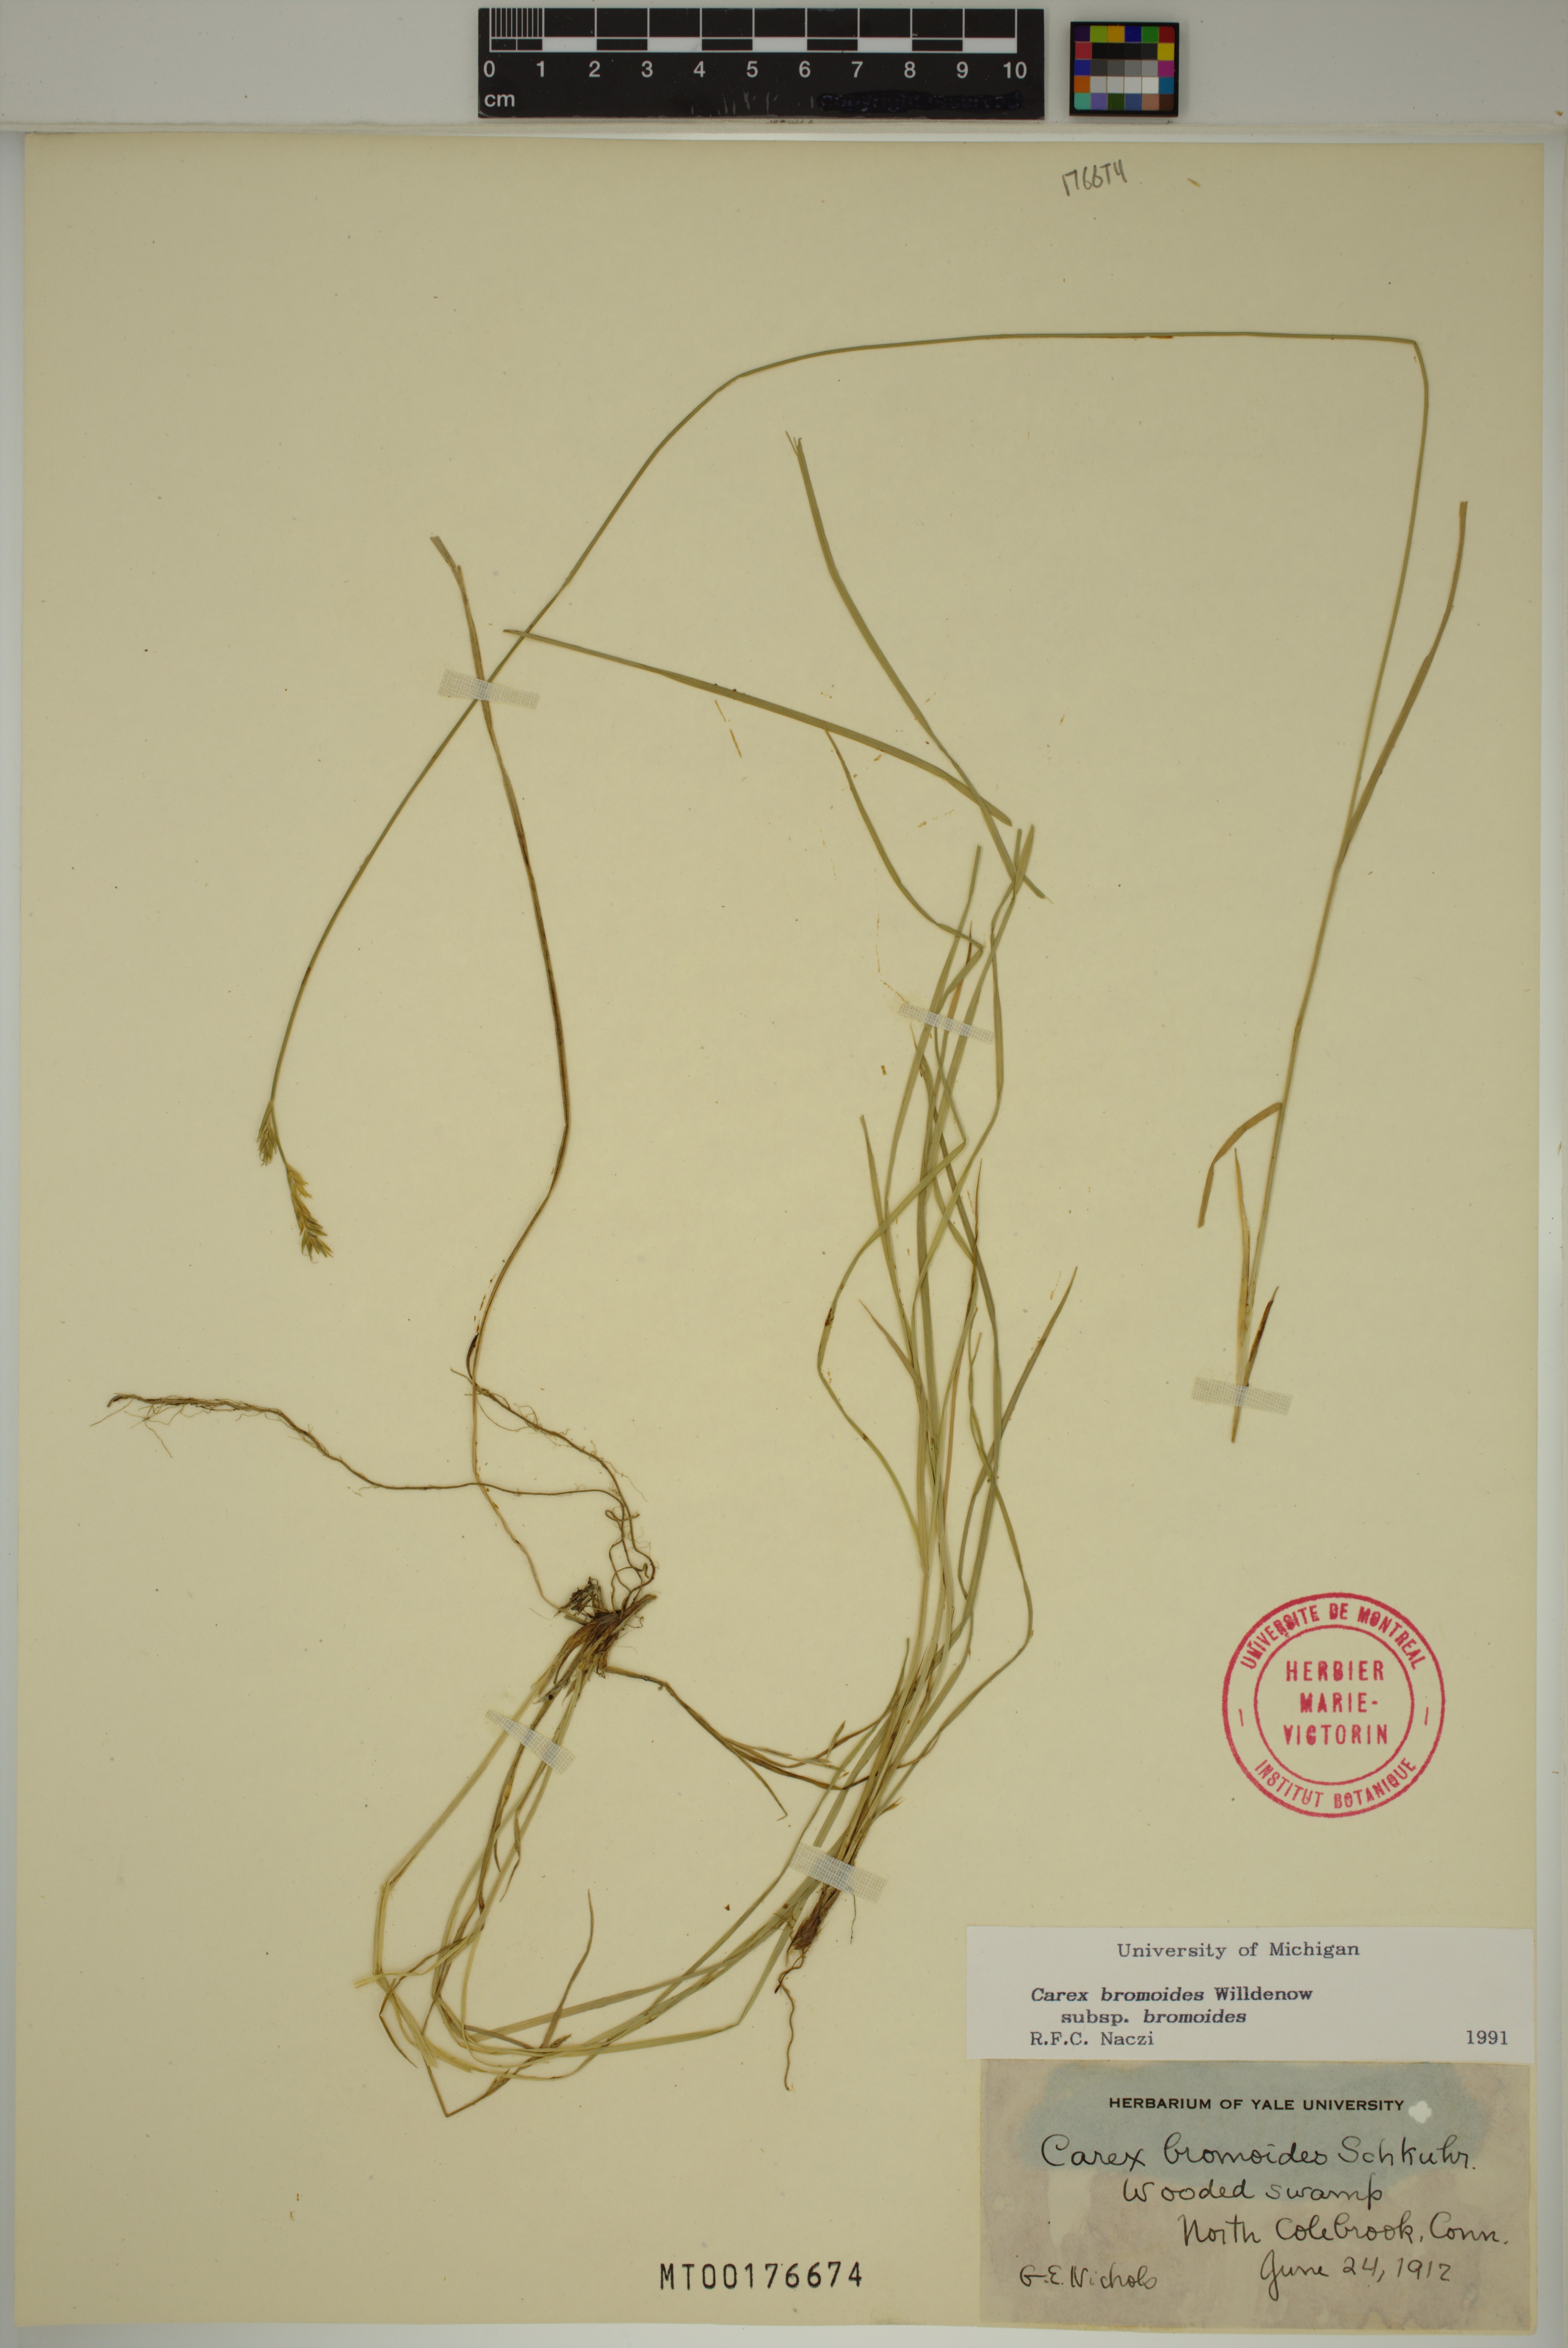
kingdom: Plantae
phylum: Tracheophyta
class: Liliopsida
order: Poales
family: Cyperaceae
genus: Carex
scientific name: Carex bromoides
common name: Brome hummock sedge
